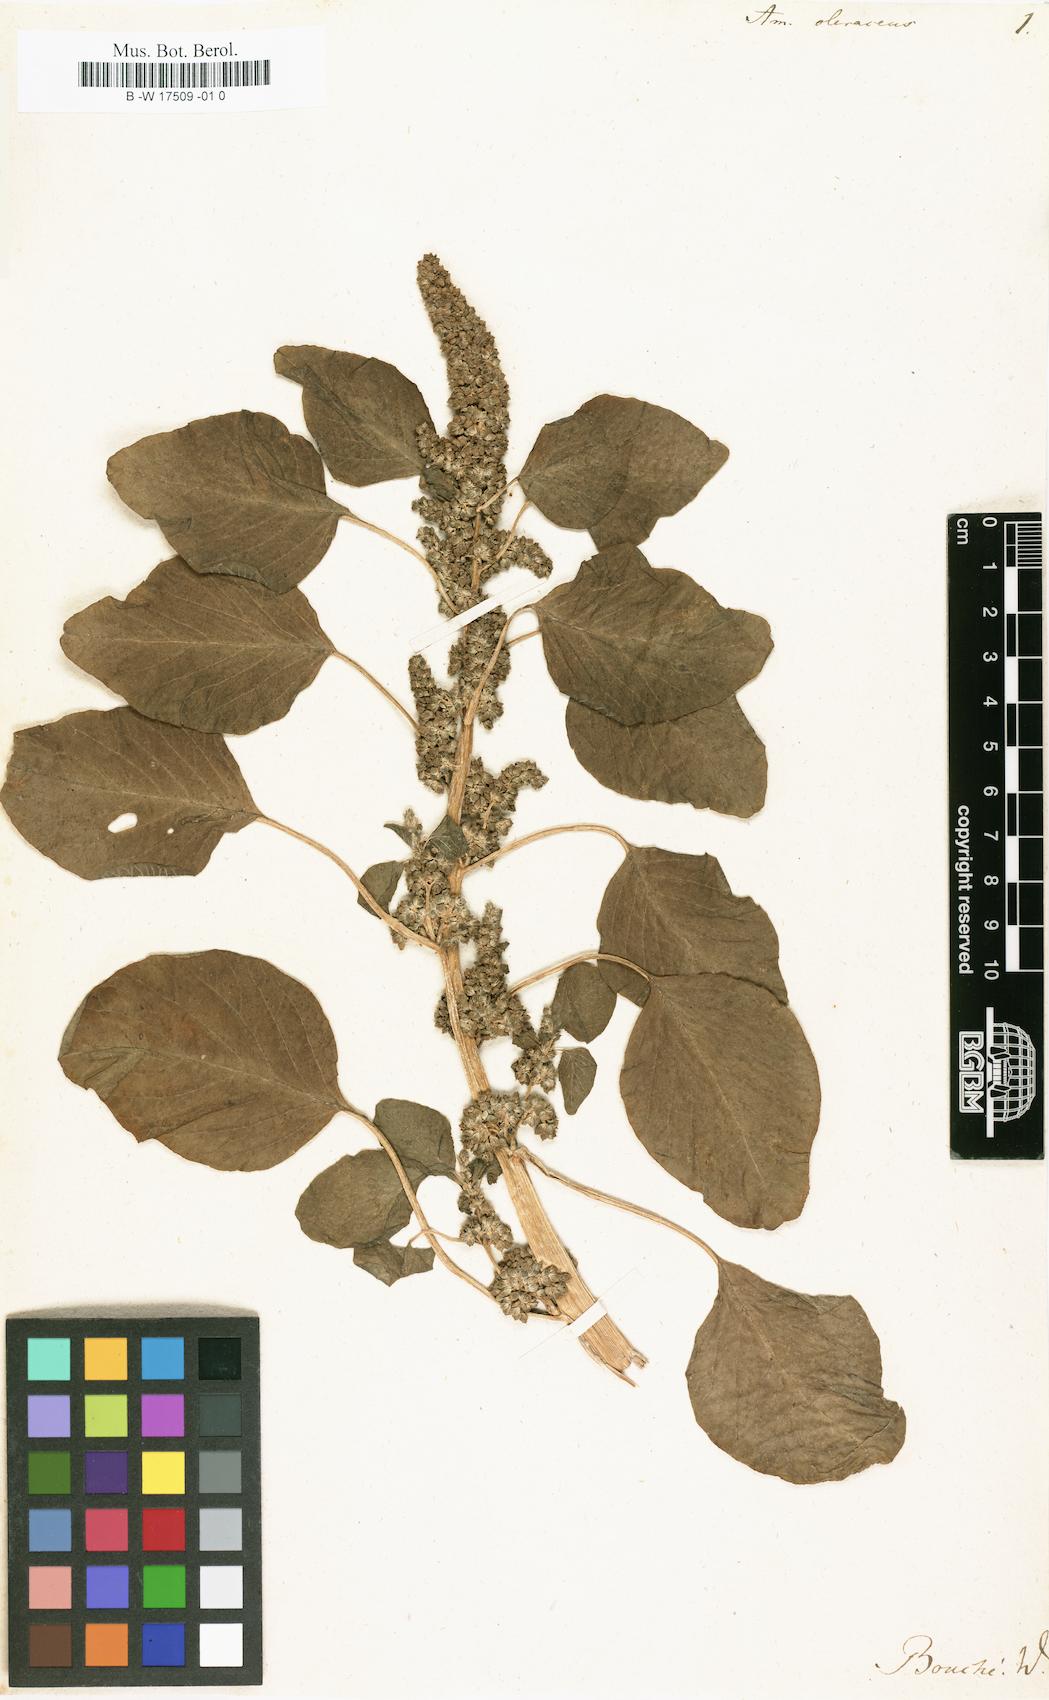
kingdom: Plantae
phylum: Tracheophyta
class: Magnoliopsida
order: Caryophyllales
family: Amaranthaceae
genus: Amaranthus
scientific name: Amaranthus blitum
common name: Purple amaranth
